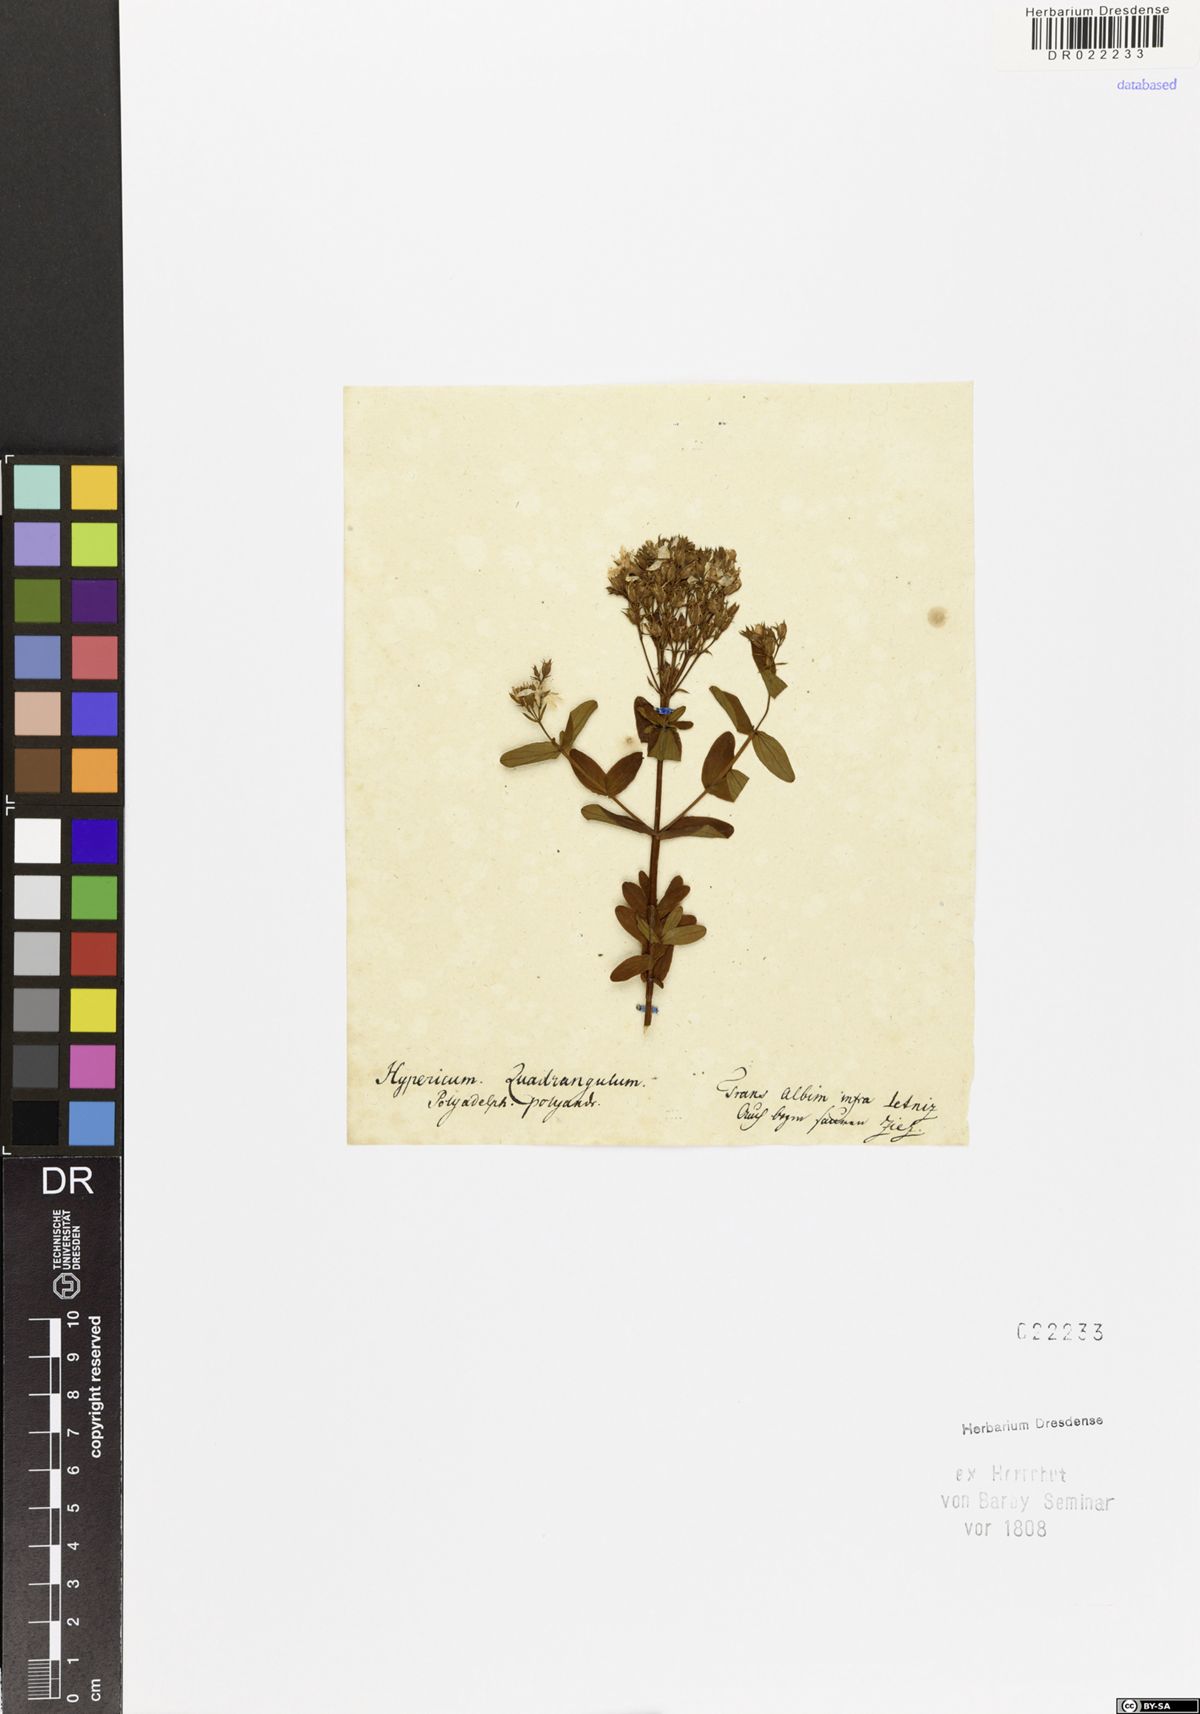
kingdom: Plantae
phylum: Tracheophyta
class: Magnoliopsida
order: Malpighiales
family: Hypericaceae
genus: Hypericum
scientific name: Hypericum tetrapterum
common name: Square-stalked st. john's-wort
